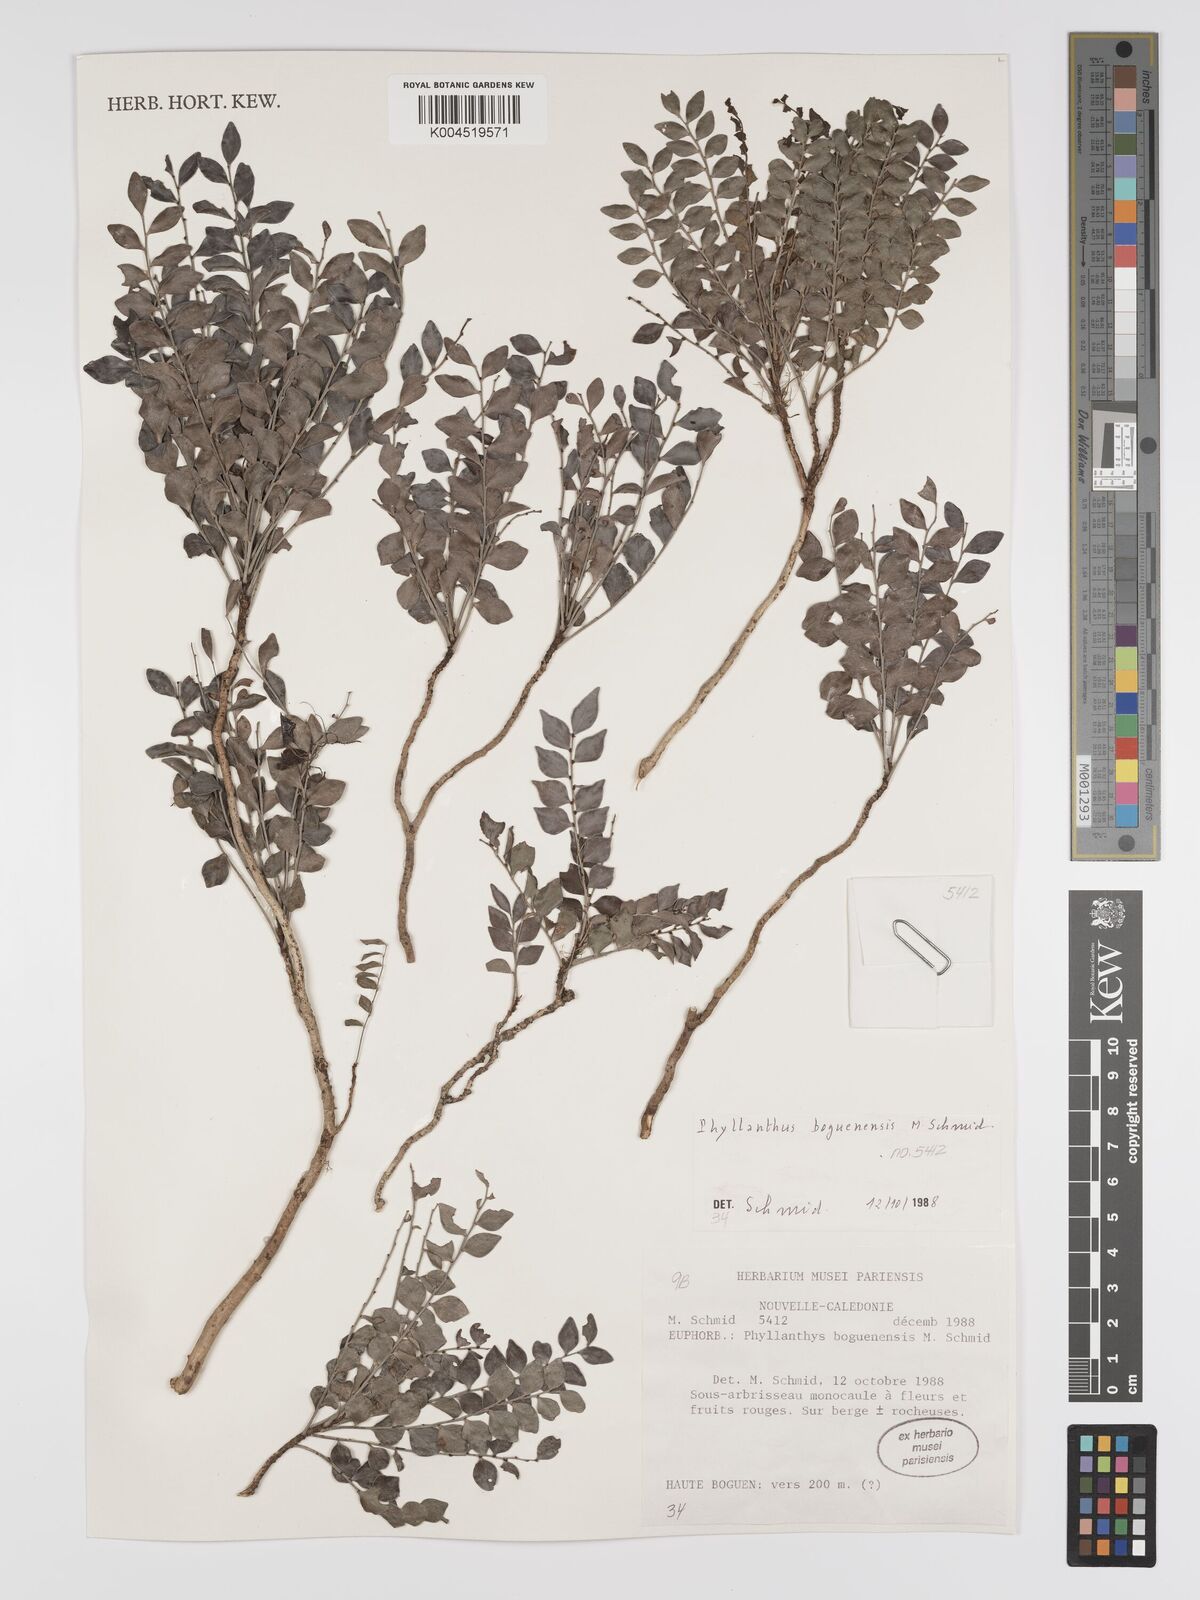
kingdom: Plantae
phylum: Tracheophyta
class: Magnoliopsida
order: Malpighiales
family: Phyllanthaceae
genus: Phyllanthus
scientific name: Phyllanthus boguenensis
